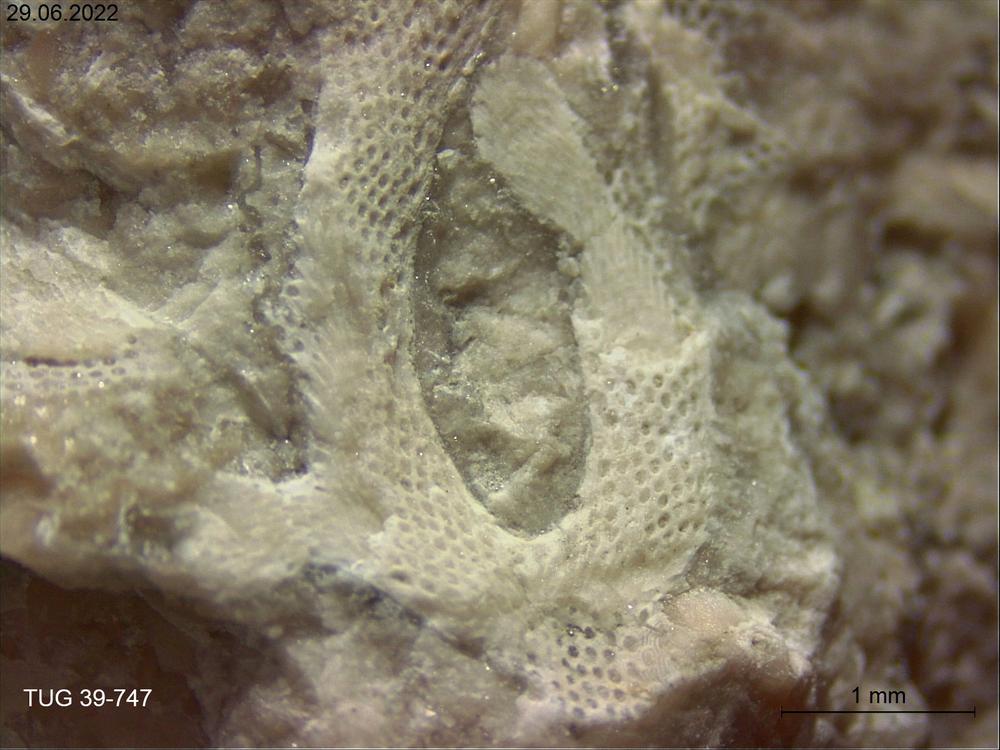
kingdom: Animalia
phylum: Bryozoa
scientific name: Bryozoa
